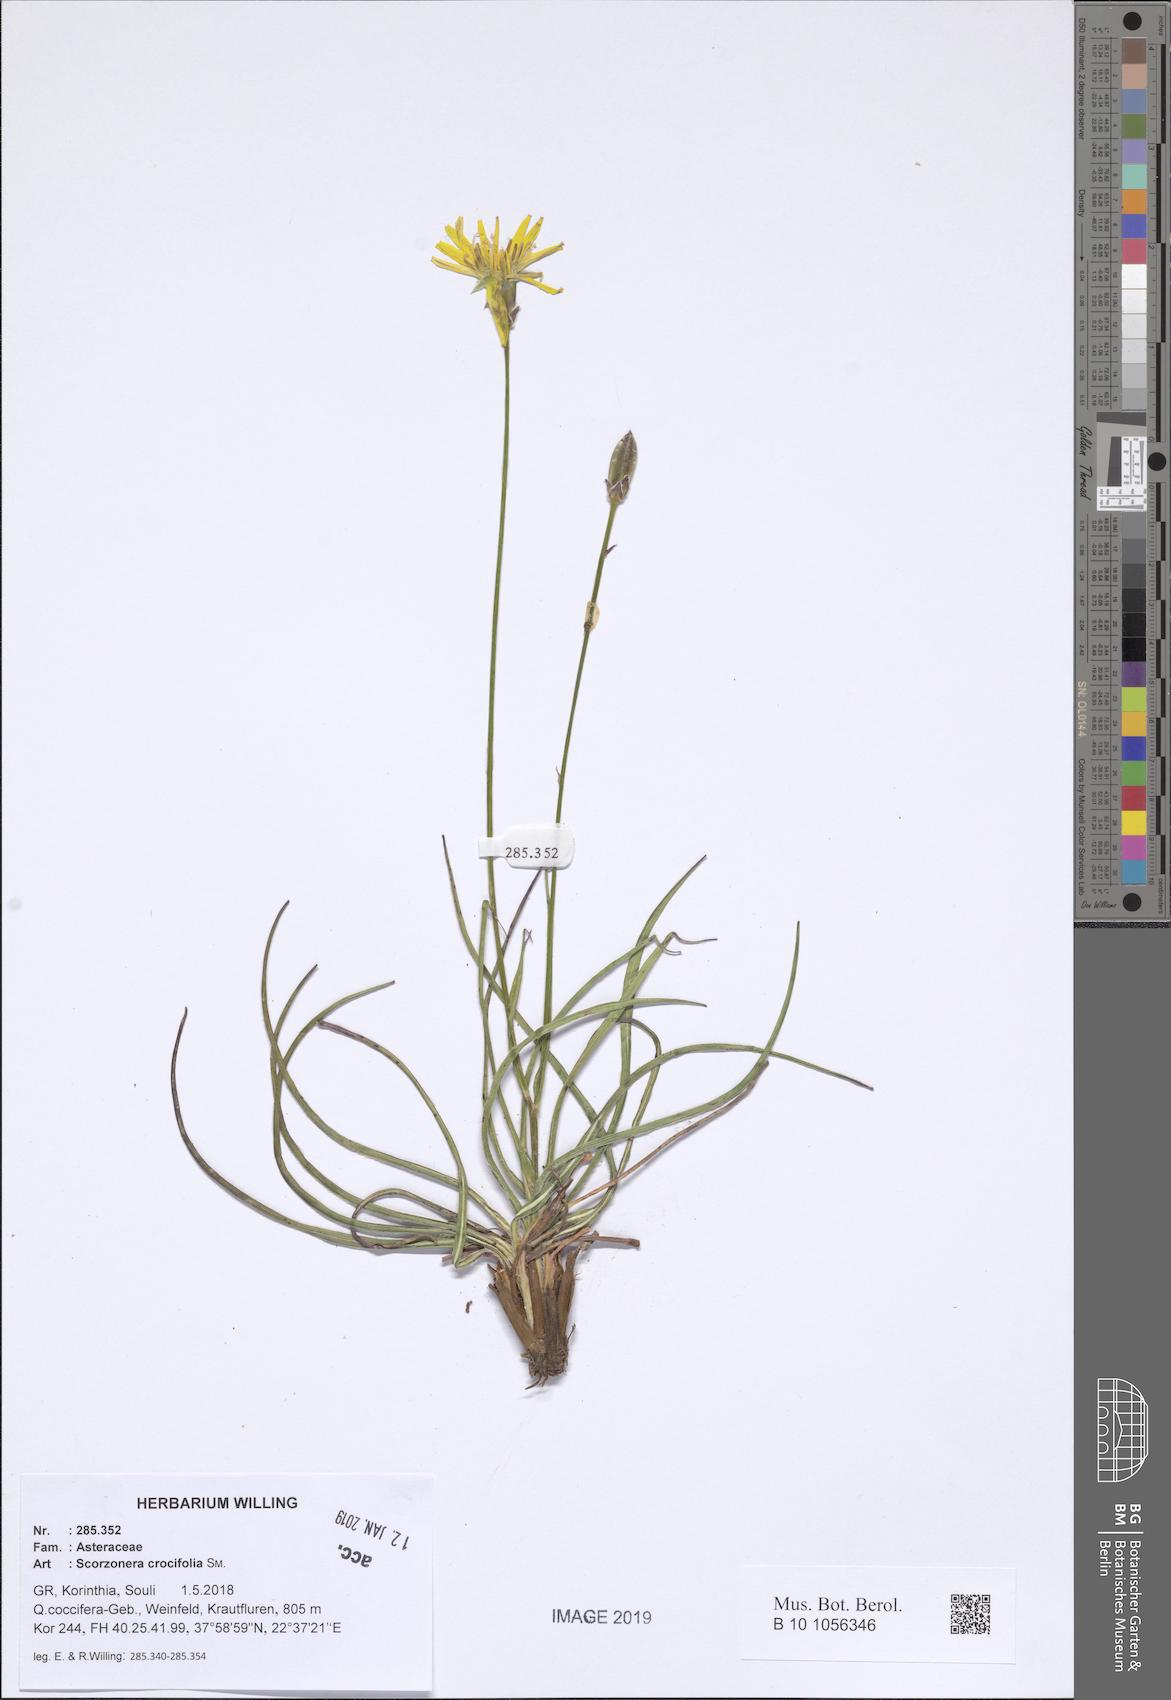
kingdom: Plantae
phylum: Tracheophyta
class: Magnoliopsida
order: Asterales
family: Asteraceae
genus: Pseudopodospermum
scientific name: Pseudopodospermum crocifolium
